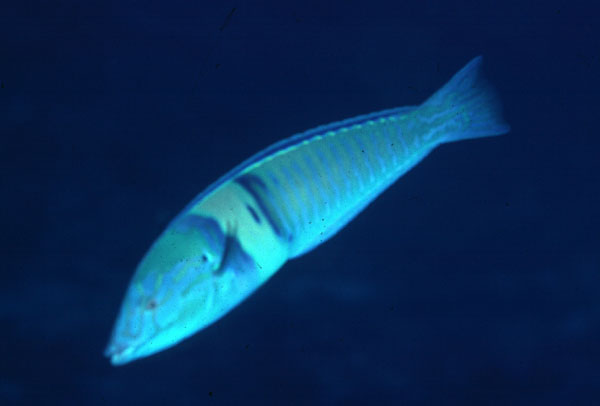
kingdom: Animalia
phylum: Chordata
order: Perciformes
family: Labridae
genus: Hologymnosus
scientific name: Hologymnosus doliatus
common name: Pastel ringwrasse
